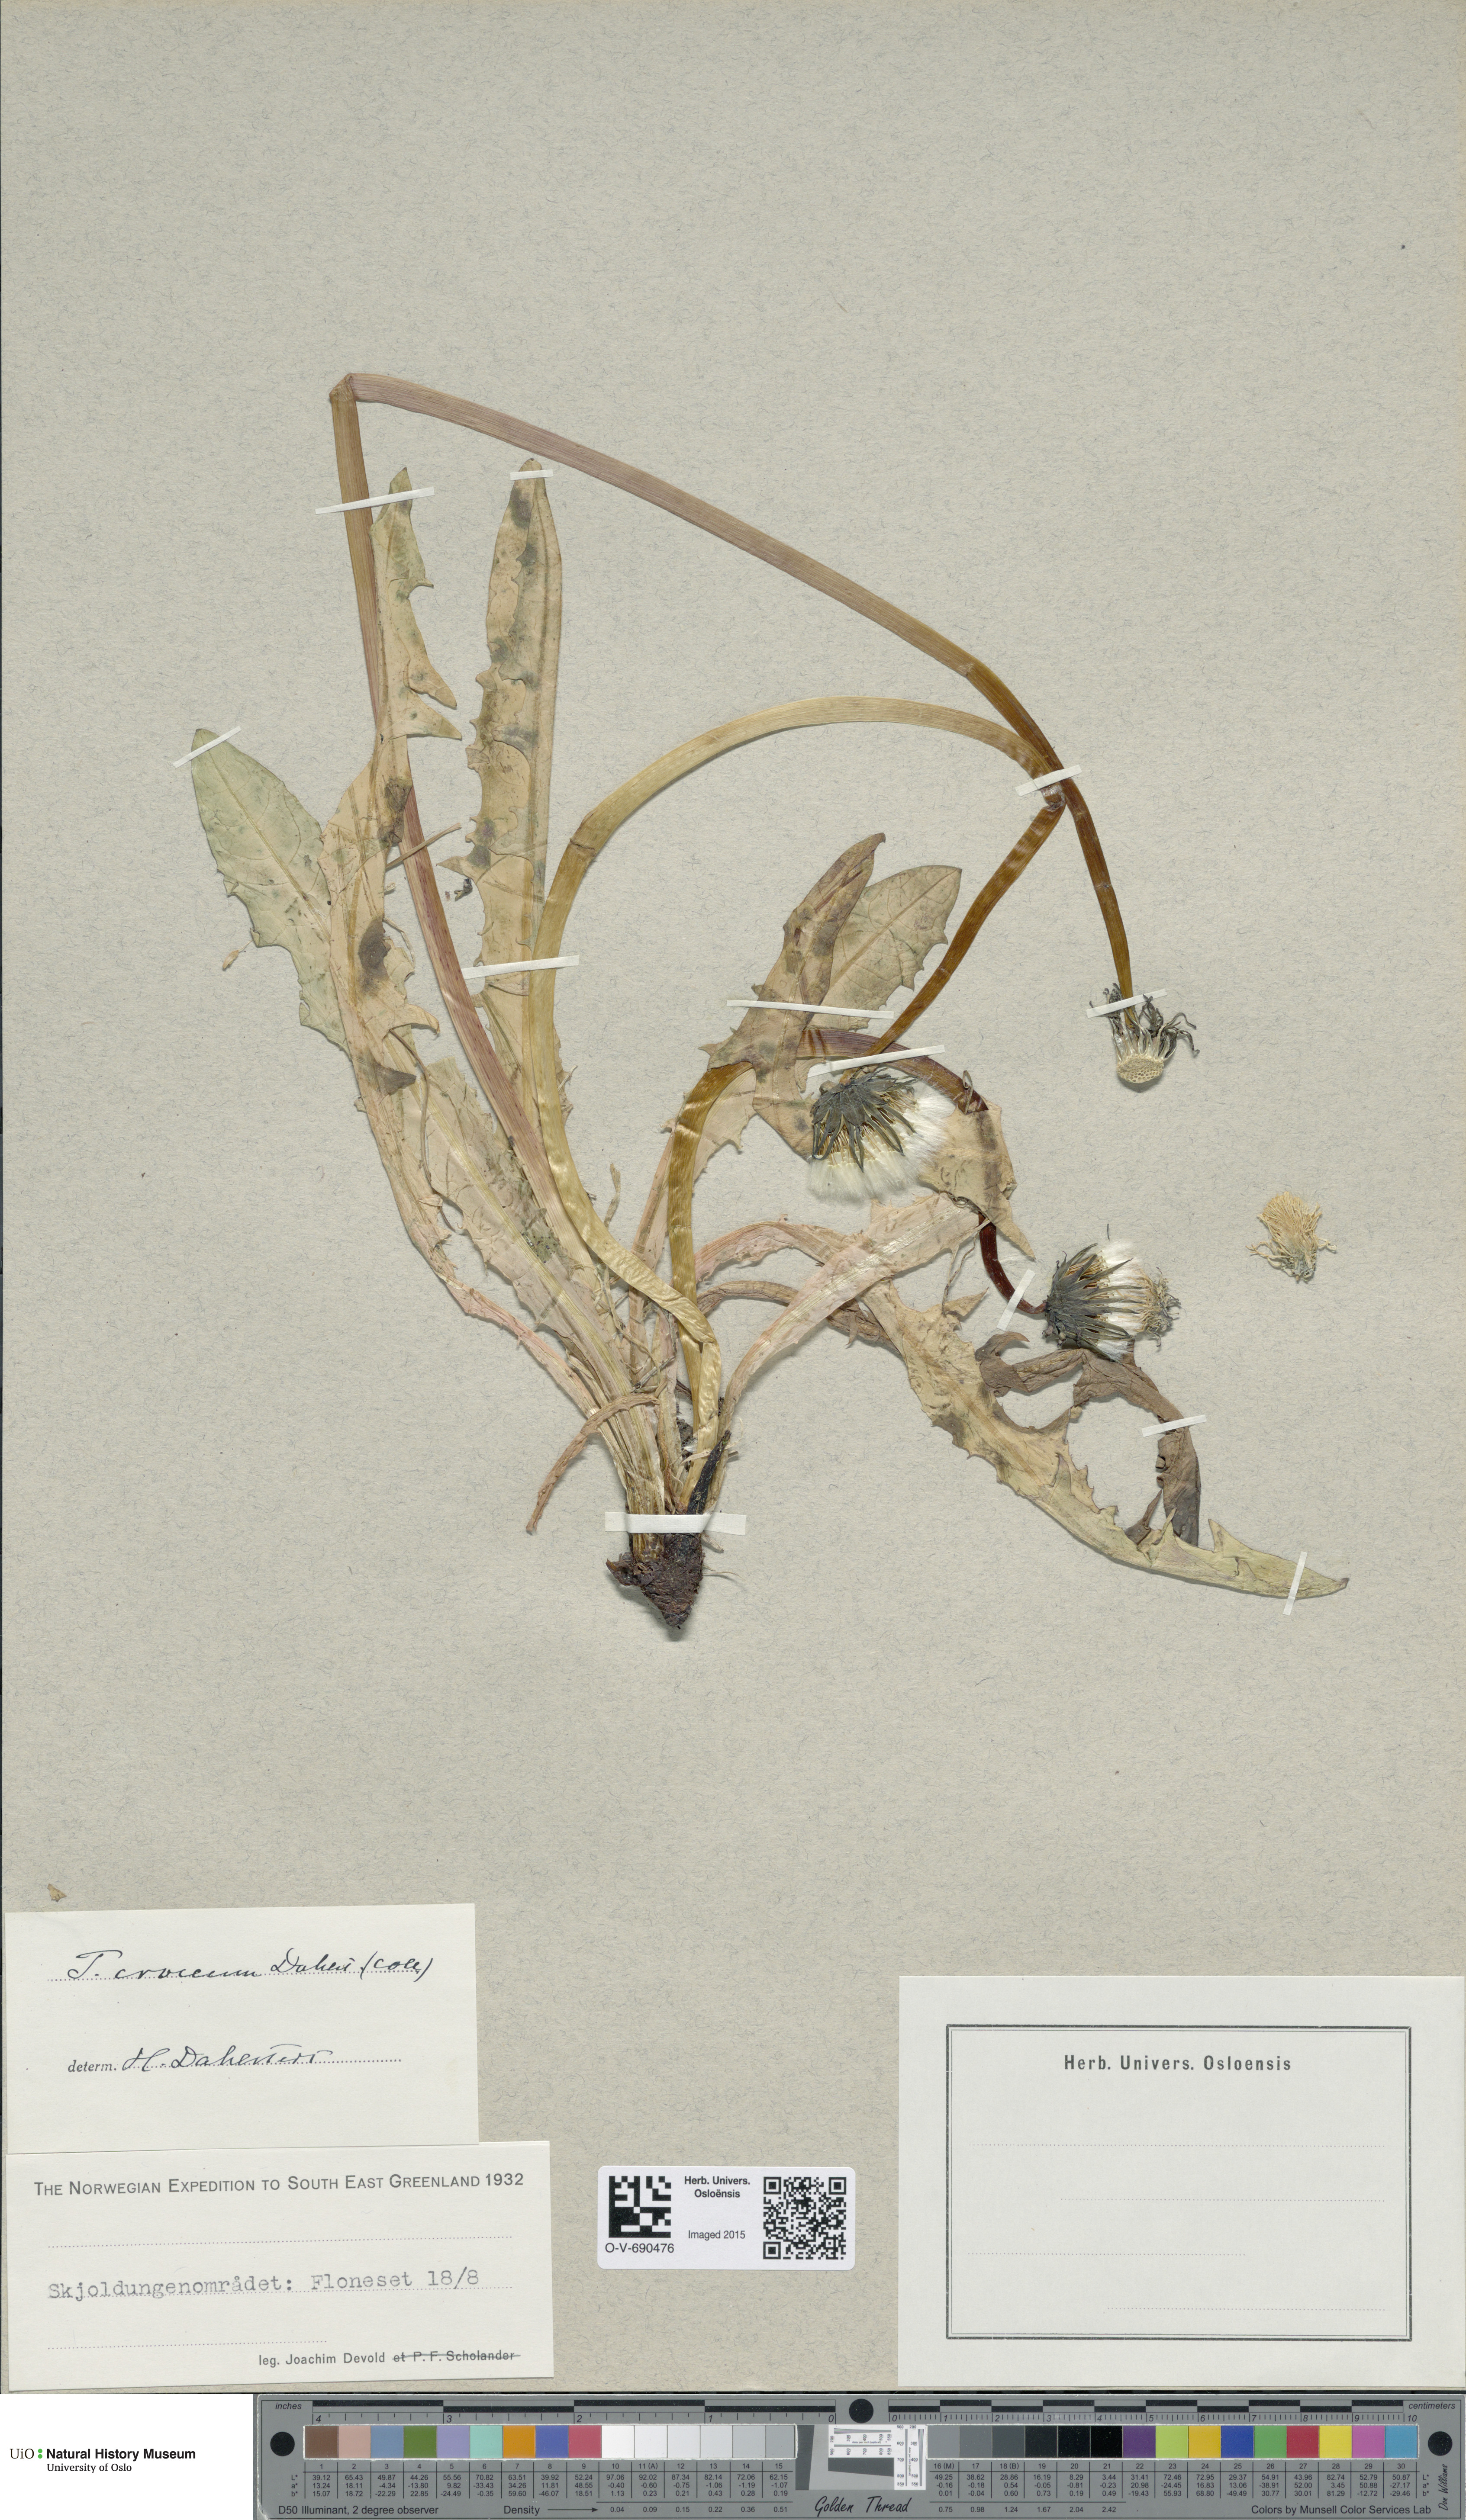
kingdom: Plantae
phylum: Tracheophyta
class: Magnoliopsida
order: Asterales
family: Asteraceae
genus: Taraxacum
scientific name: Taraxacum croceum
